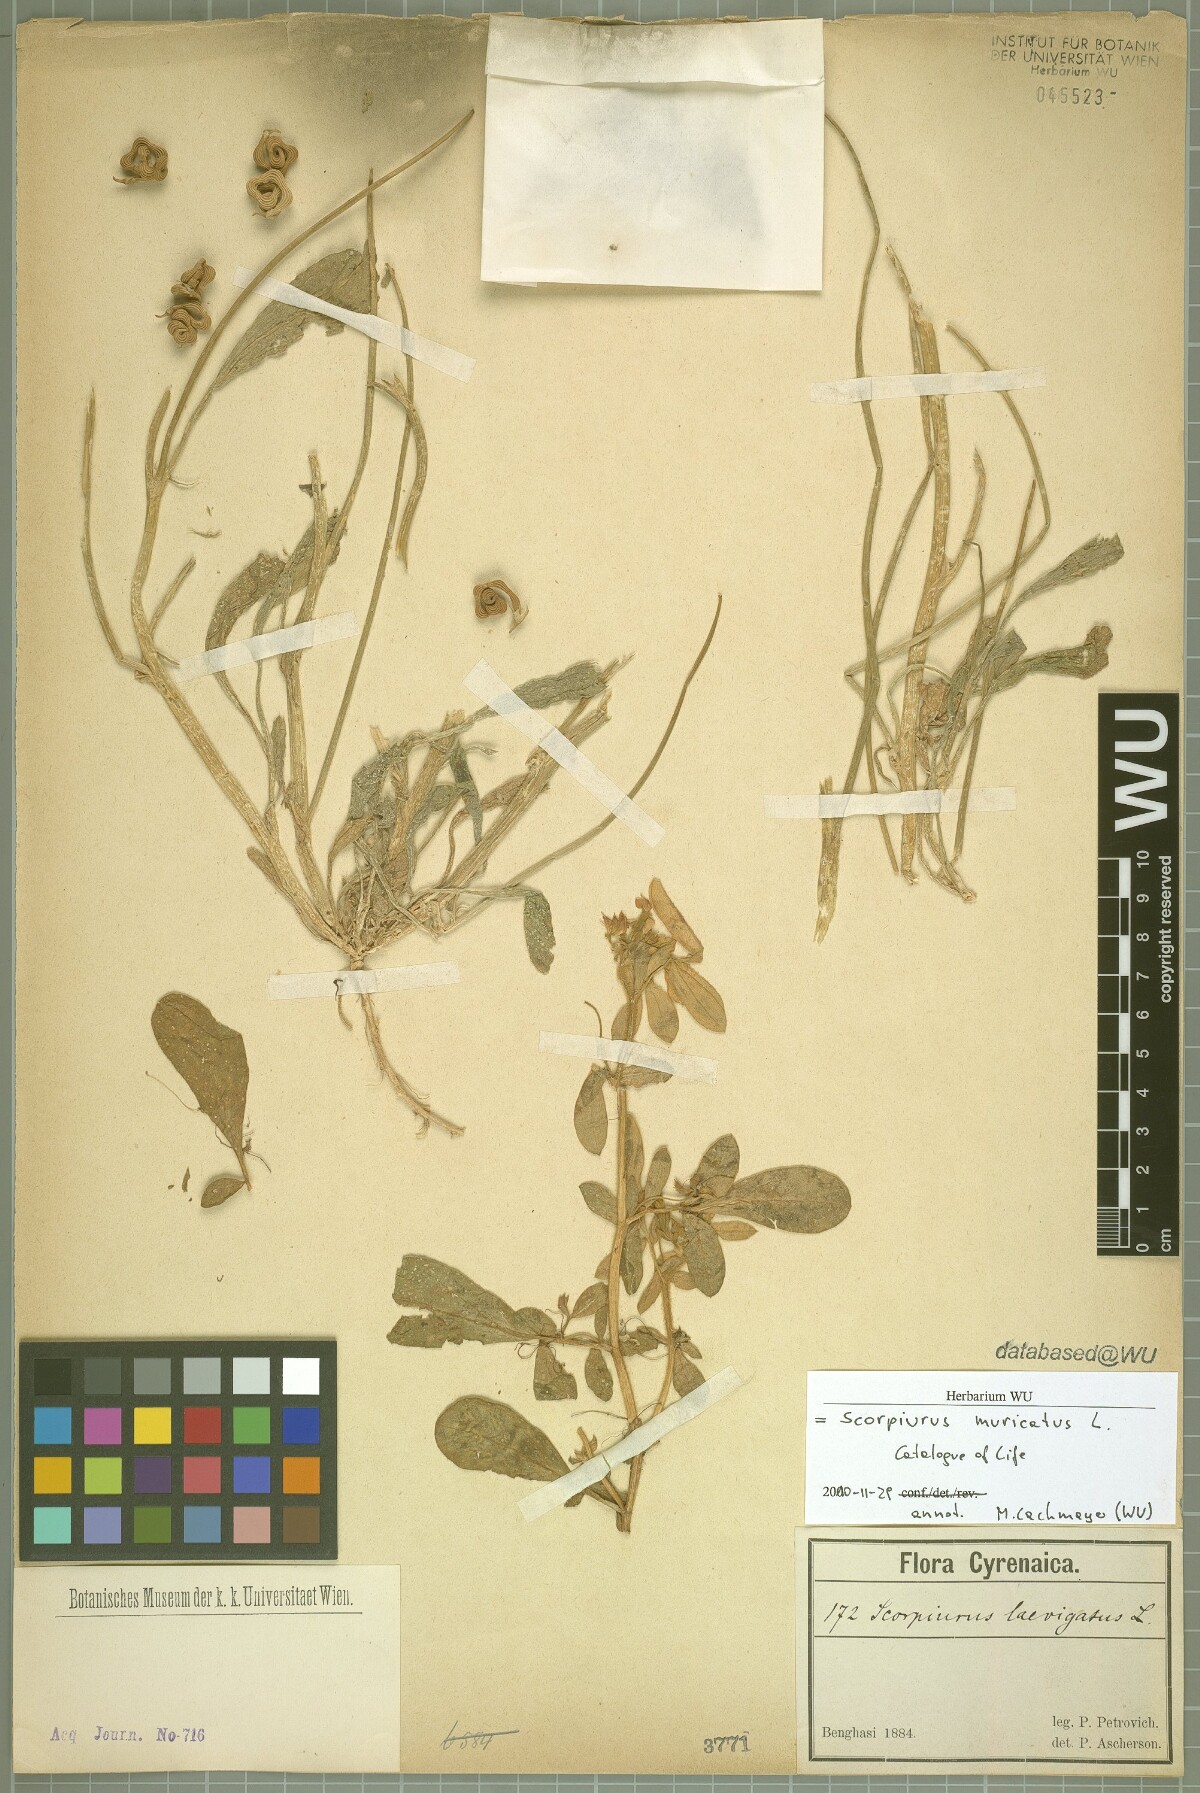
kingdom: Plantae
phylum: Tracheophyta
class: Magnoliopsida
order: Fabales
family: Fabaceae
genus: Scorpiurus
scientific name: Scorpiurus muricatus
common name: Caterpillar-plant
